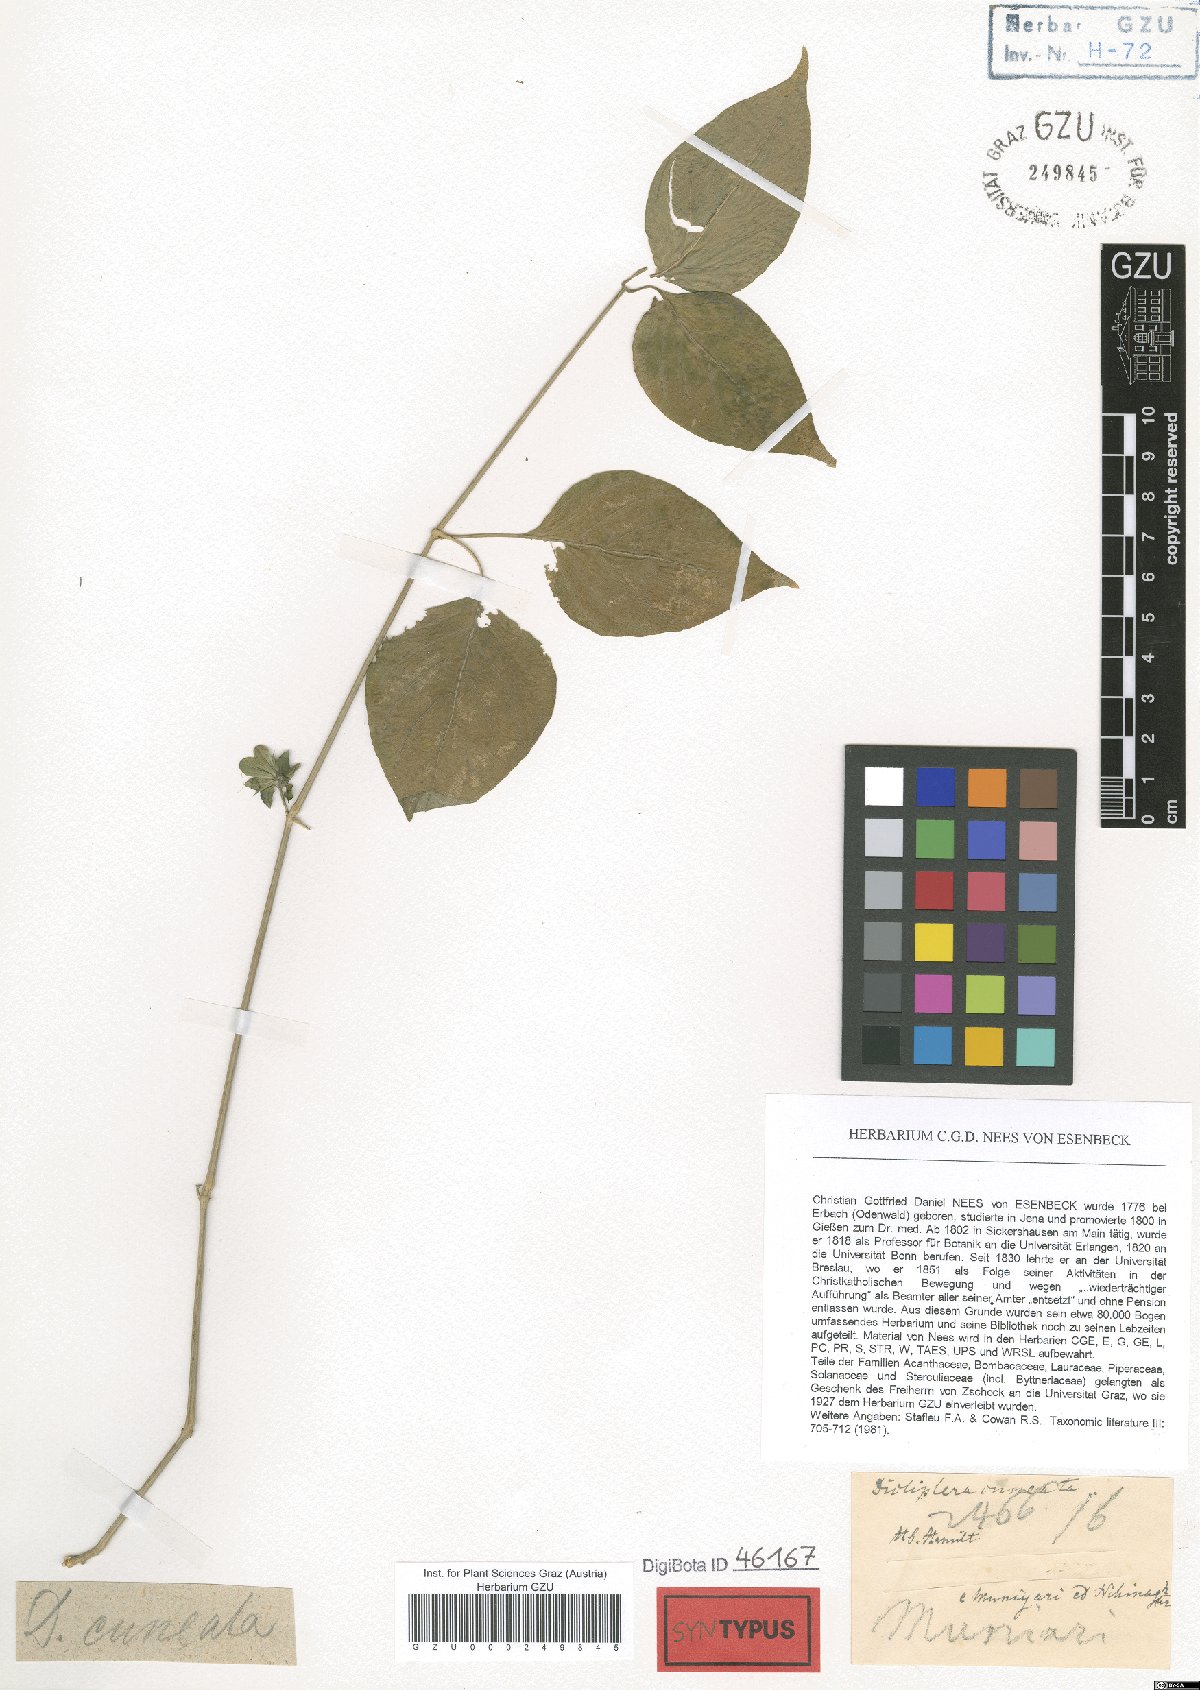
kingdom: Plantae
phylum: Tracheophyta
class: Magnoliopsida
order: Lamiales
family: Acanthaceae
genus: Dicliptera
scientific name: Dicliptera cuneata
